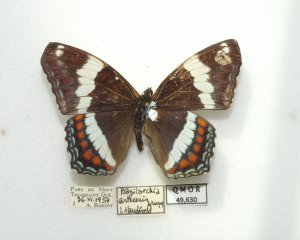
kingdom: Animalia
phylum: Arthropoda
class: Insecta
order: Lepidoptera
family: Nymphalidae
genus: Limenitis
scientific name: Limenitis arthemis
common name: Red-spotted Admiral
